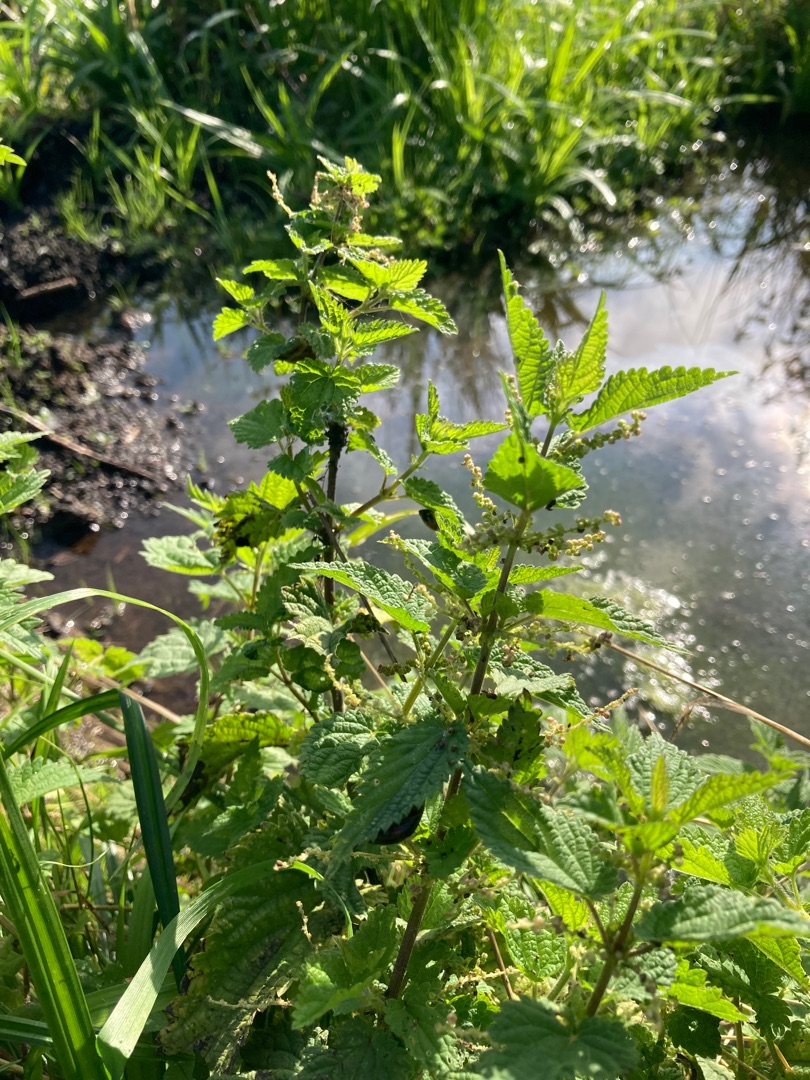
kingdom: Plantae
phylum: Tracheophyta
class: Magnoliopsida
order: Rosales
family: Urticaceae
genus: Urtica
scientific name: Urtica dioica
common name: Stor nælde
